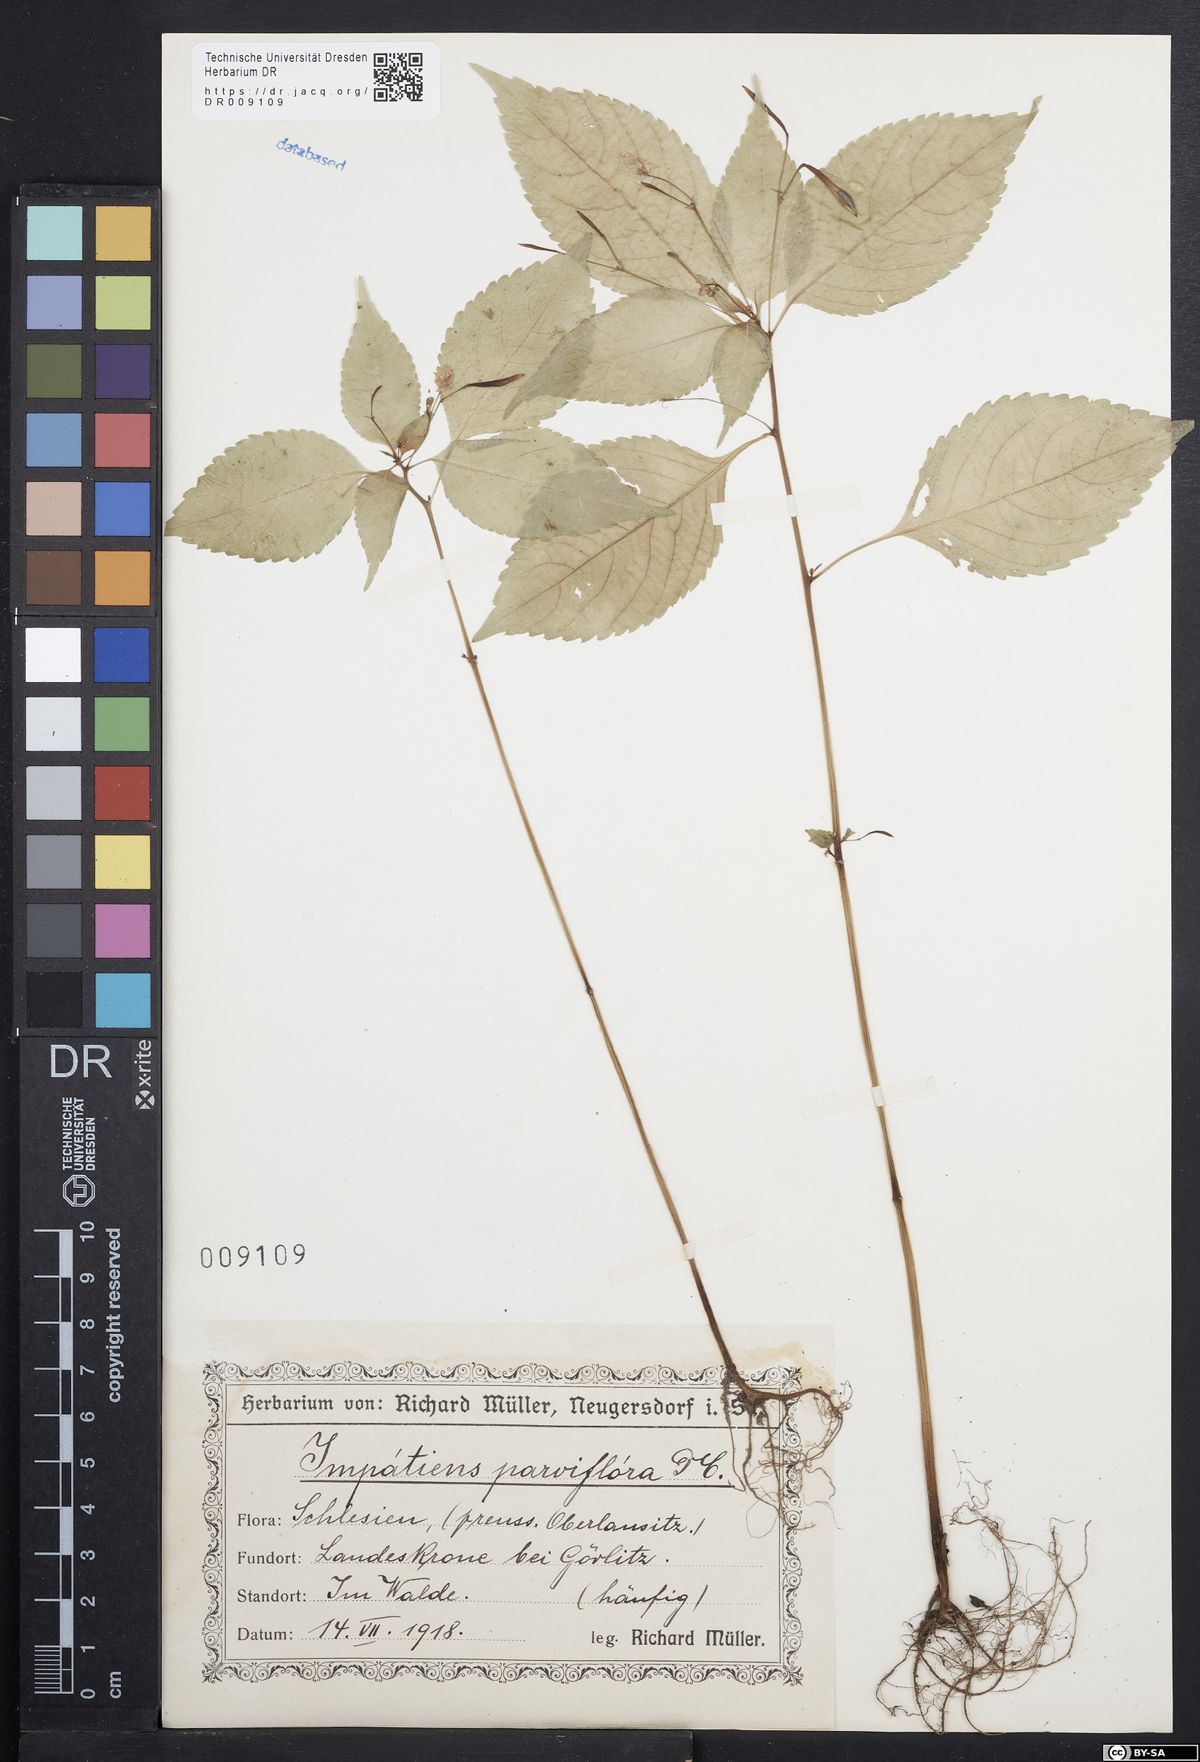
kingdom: Plantae
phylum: Tracheophyta
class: Magnoliopsida
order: Ericales
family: Balsaminaceae
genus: Impatiens
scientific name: Impatiens parviflora
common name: Small balsam
